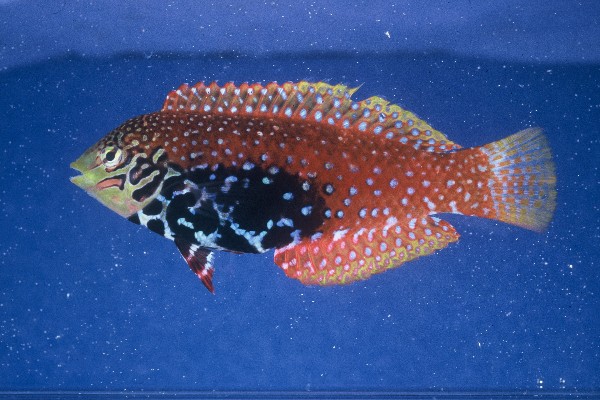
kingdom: Animalia
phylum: Chordata
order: Perciformes
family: Labridae
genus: Macropharyngodon
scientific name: Macropharyngodon bipartitus
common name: Divided wrasse
